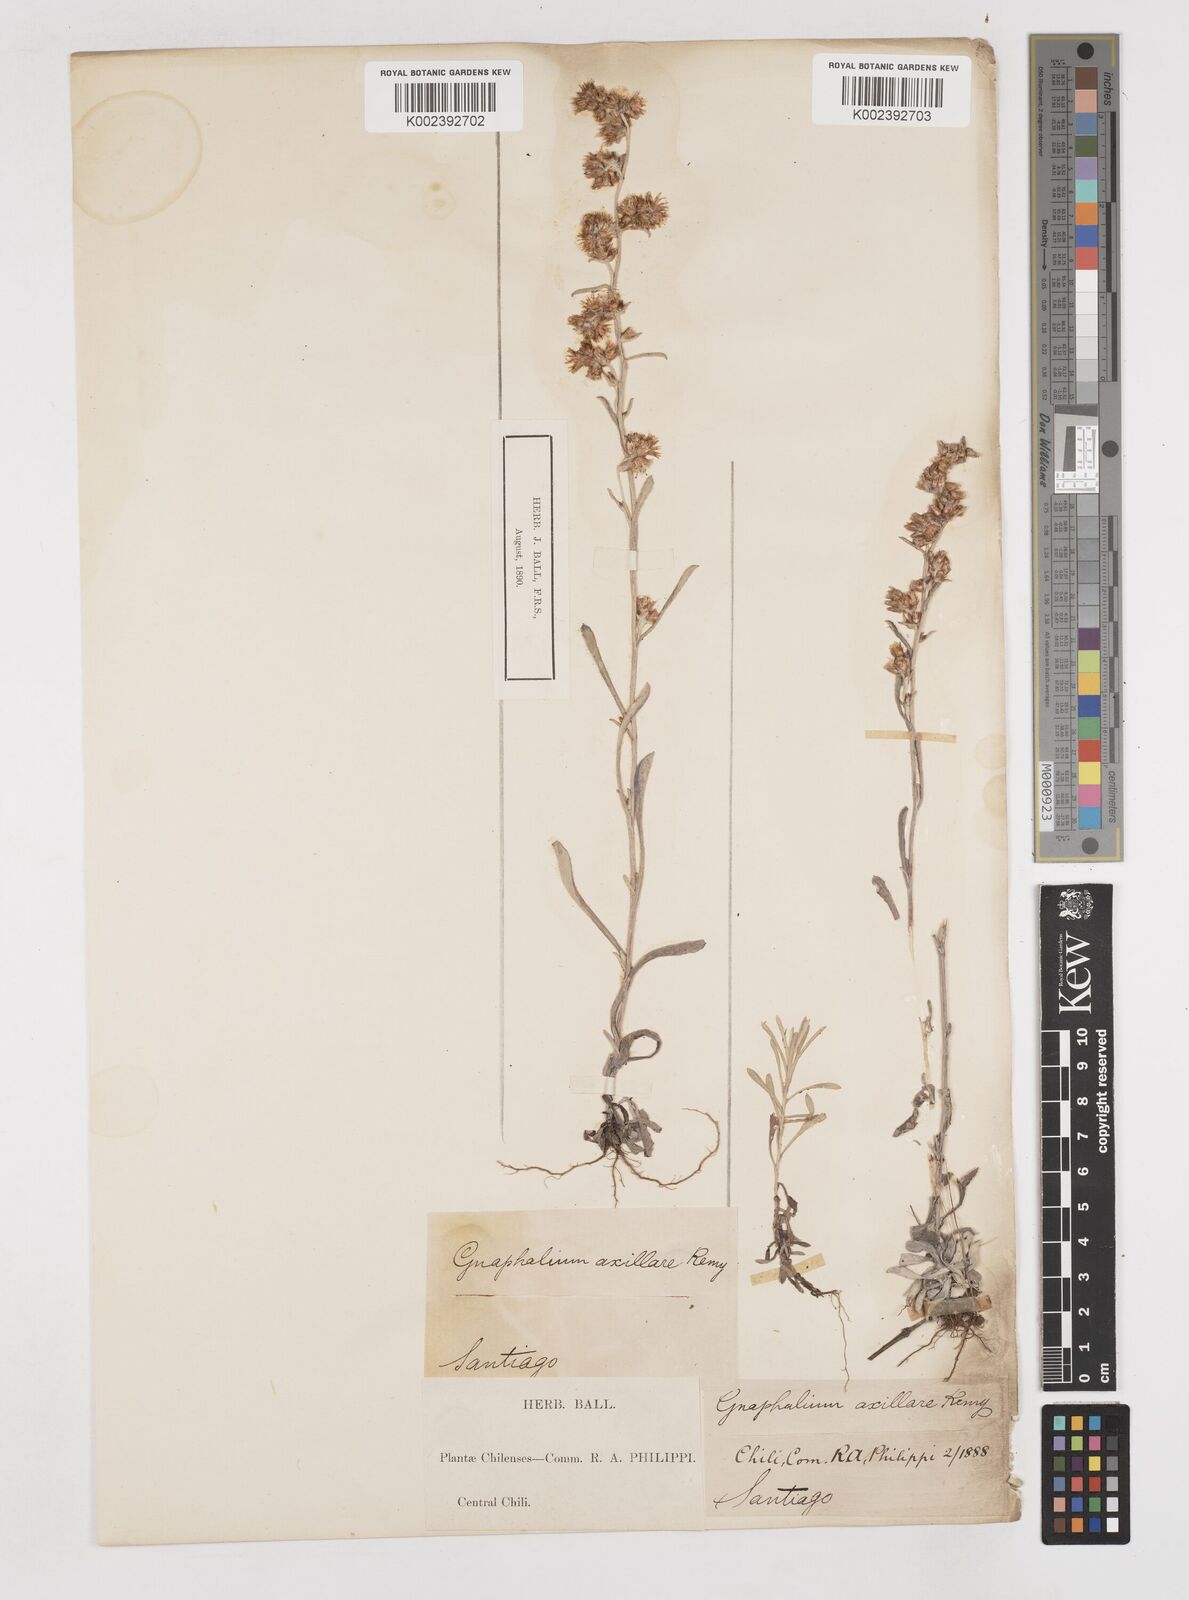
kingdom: Plantae
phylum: Tracheophyta
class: Magnoliopsida
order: Asterales
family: Asteraceae
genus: Gamochaeta
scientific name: Gamochaeta axillaris
